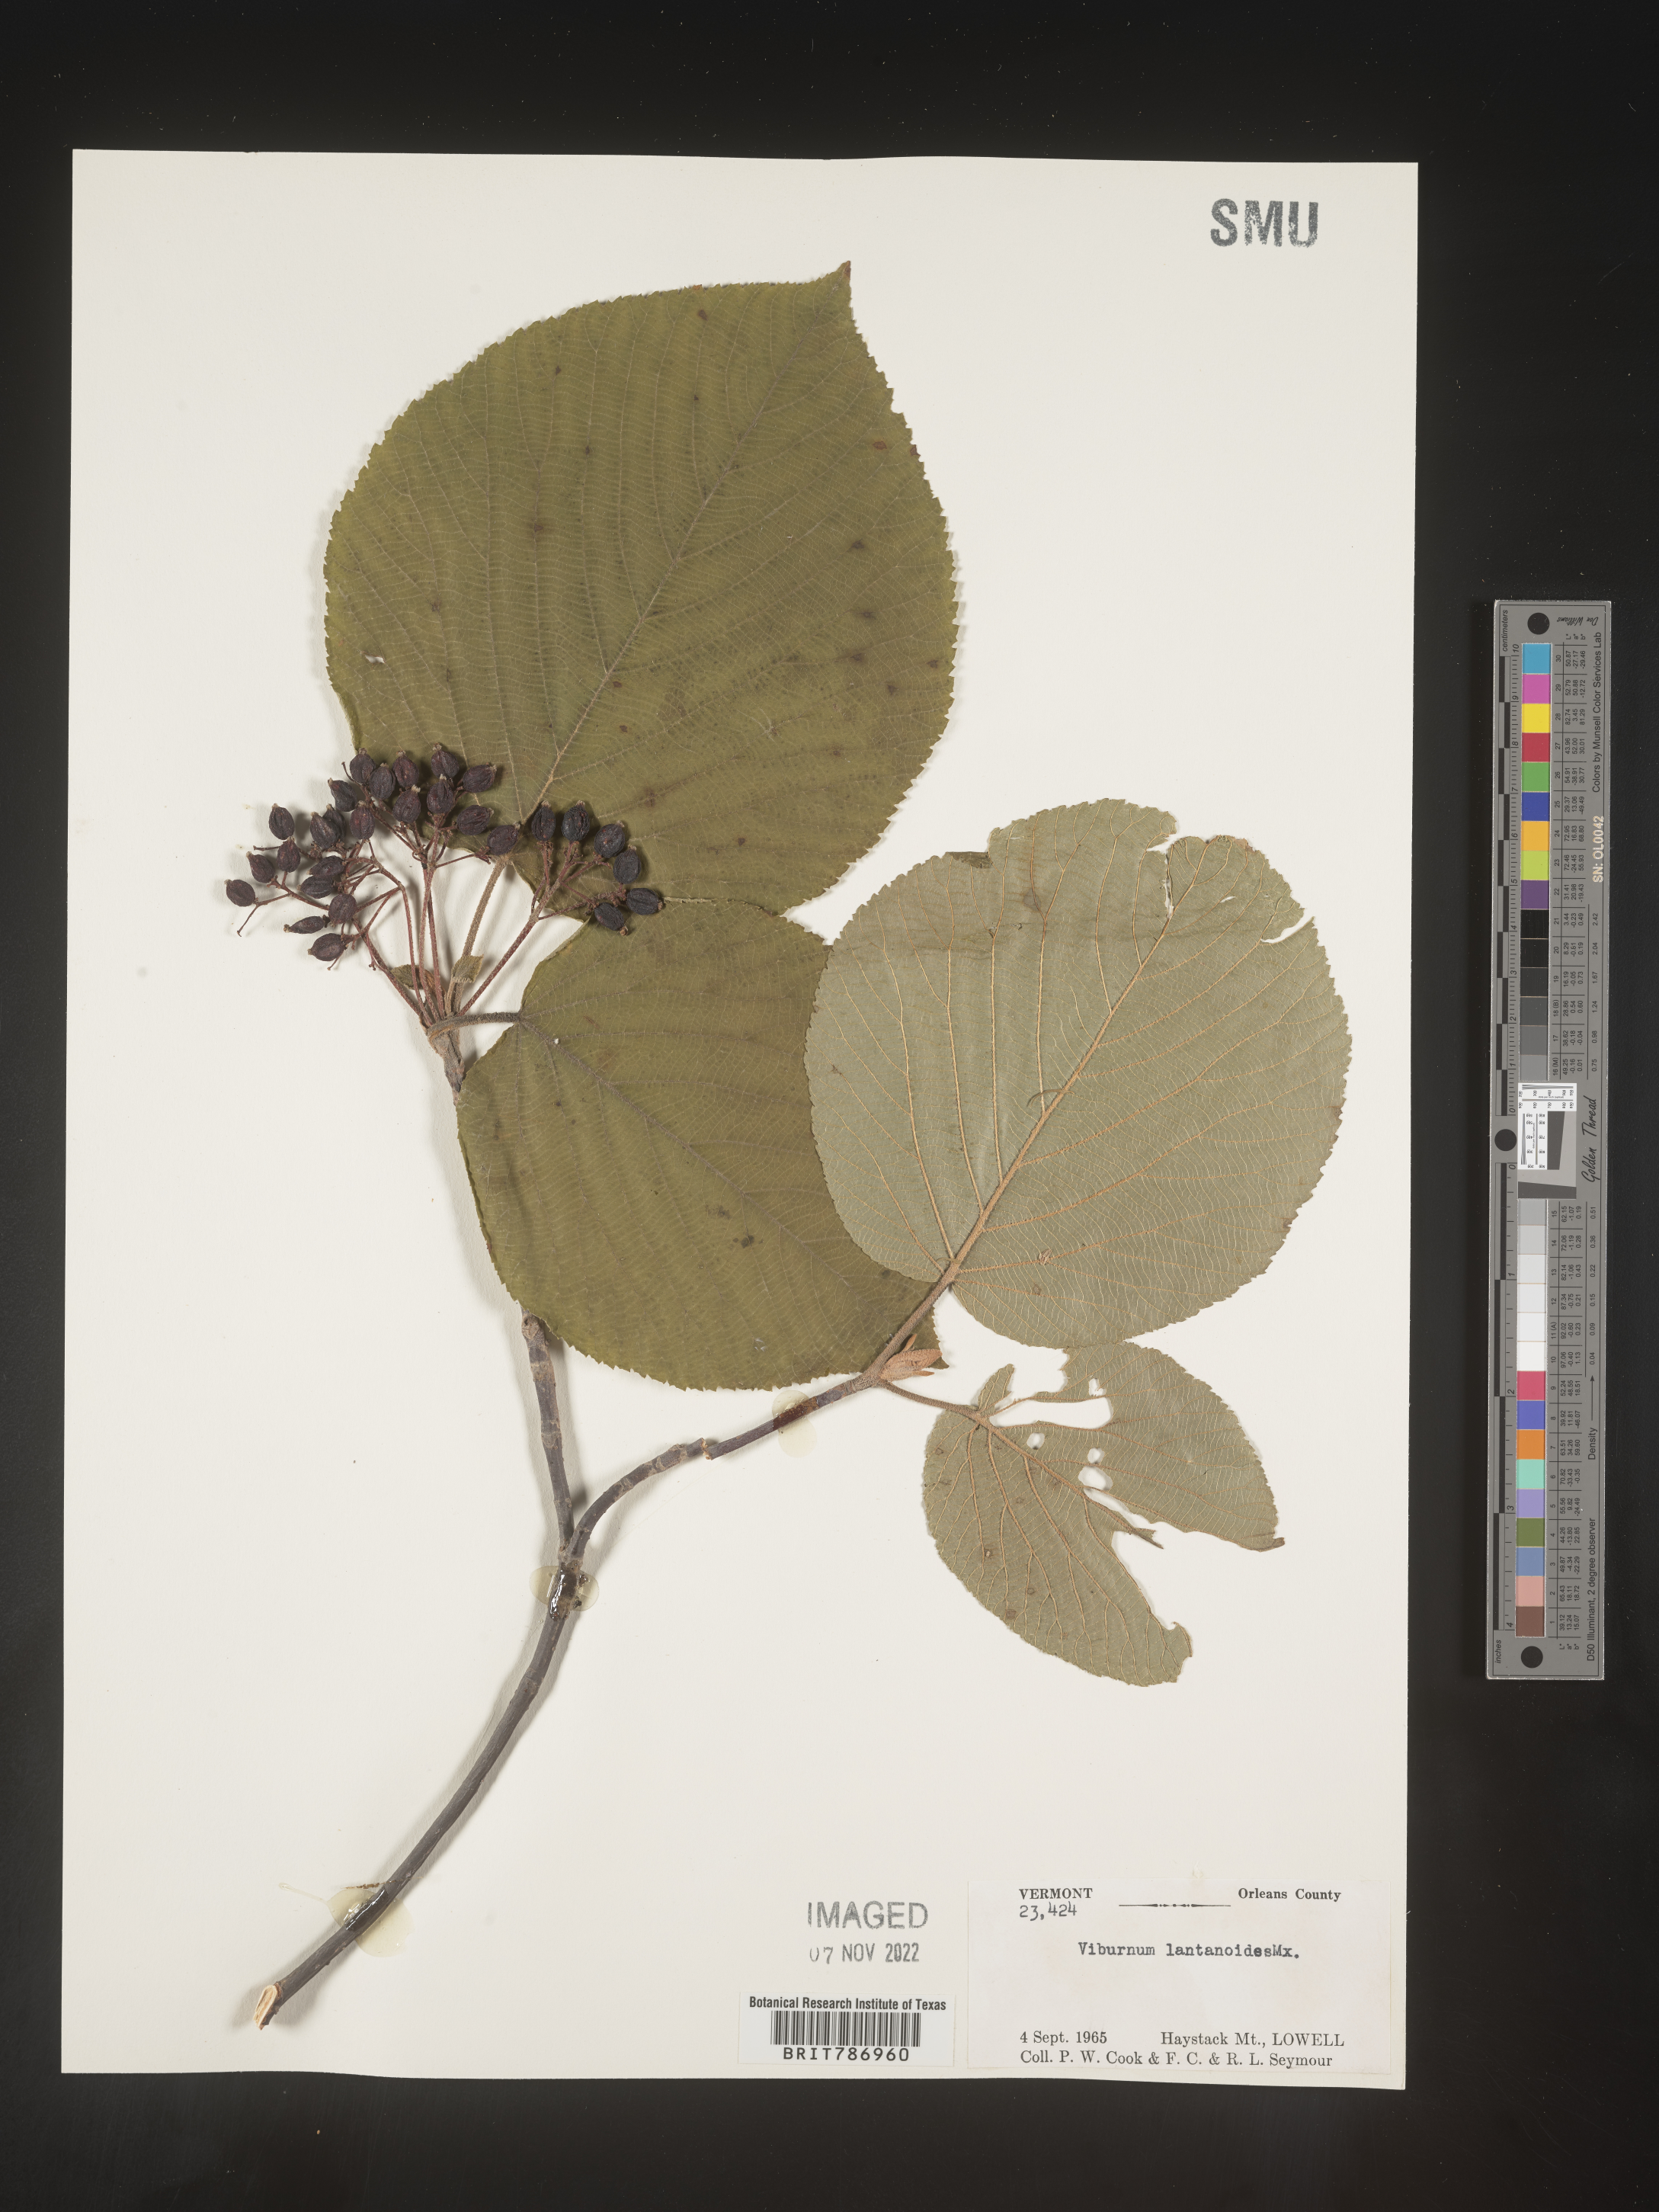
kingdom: Plantae
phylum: Tracheophyta
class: Magnoliopsida
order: Dipsacales
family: Viburnaceae
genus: Viburnum
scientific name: Viburnum lantanoides
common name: Hobblebush
